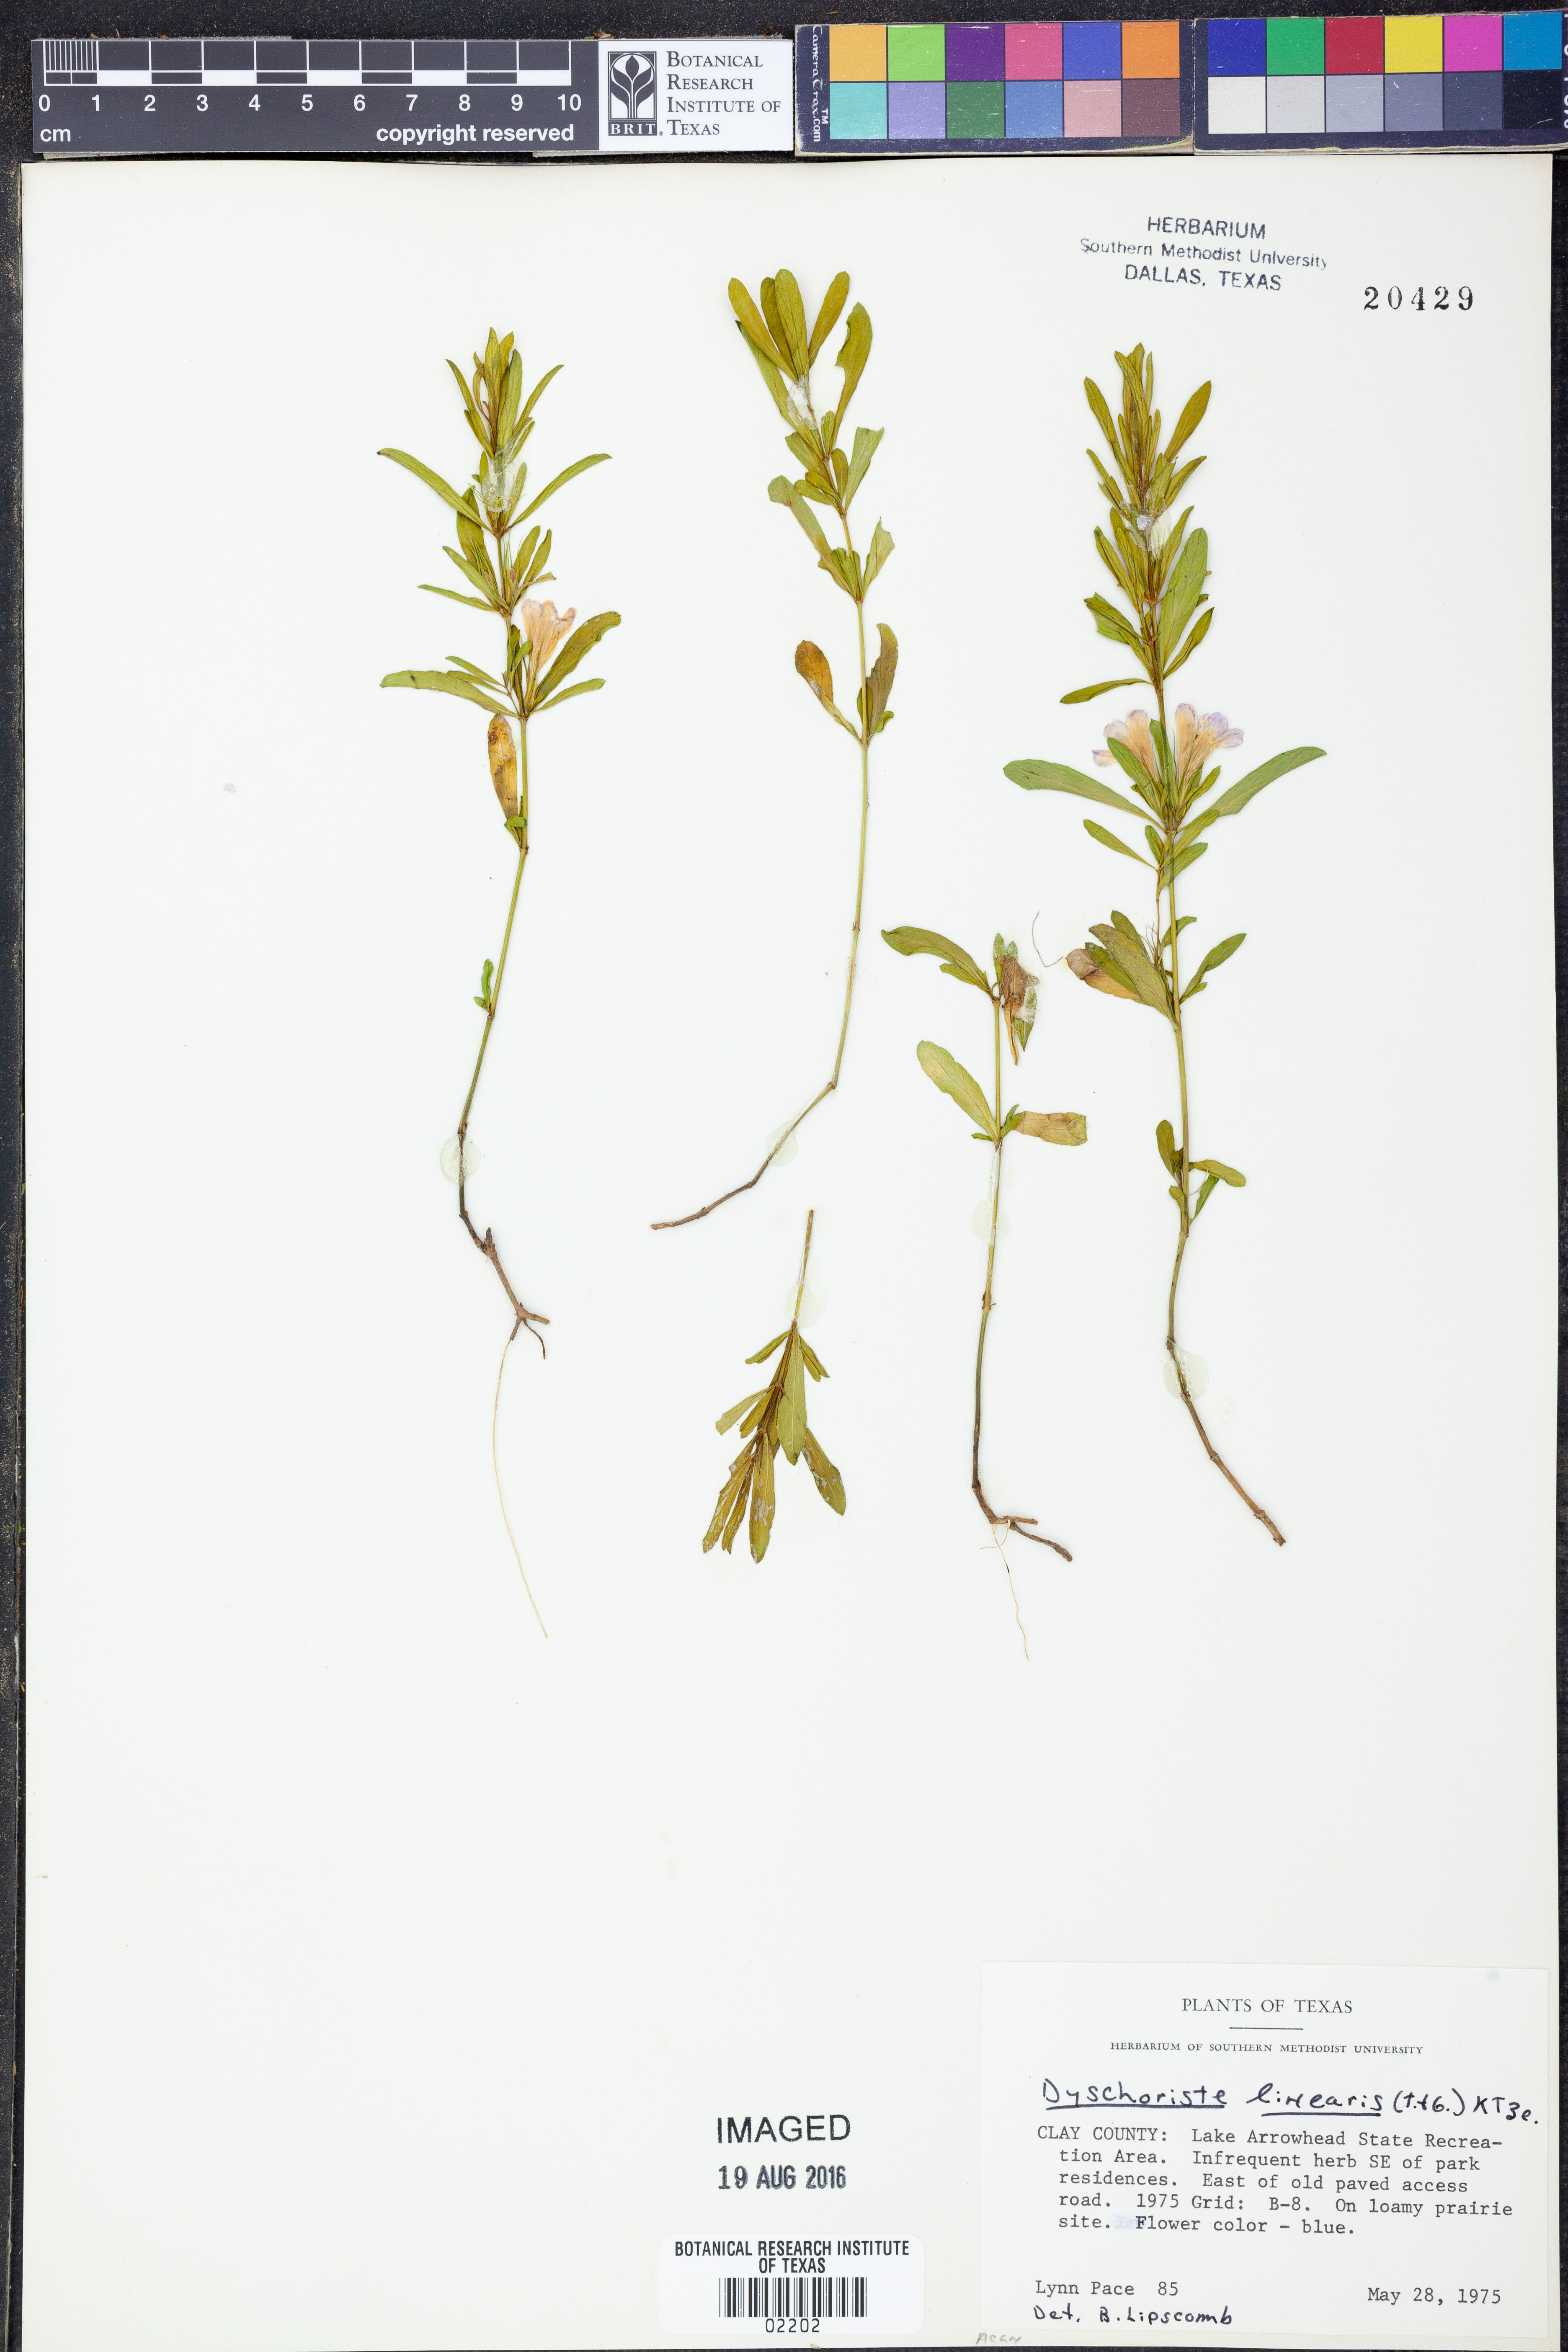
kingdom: Plantae
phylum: Tracheophyta
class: Magnoliopsida
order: Lamiales
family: Acanthaceae
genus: Dyschoriste
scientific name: Dyschoriste linearis
